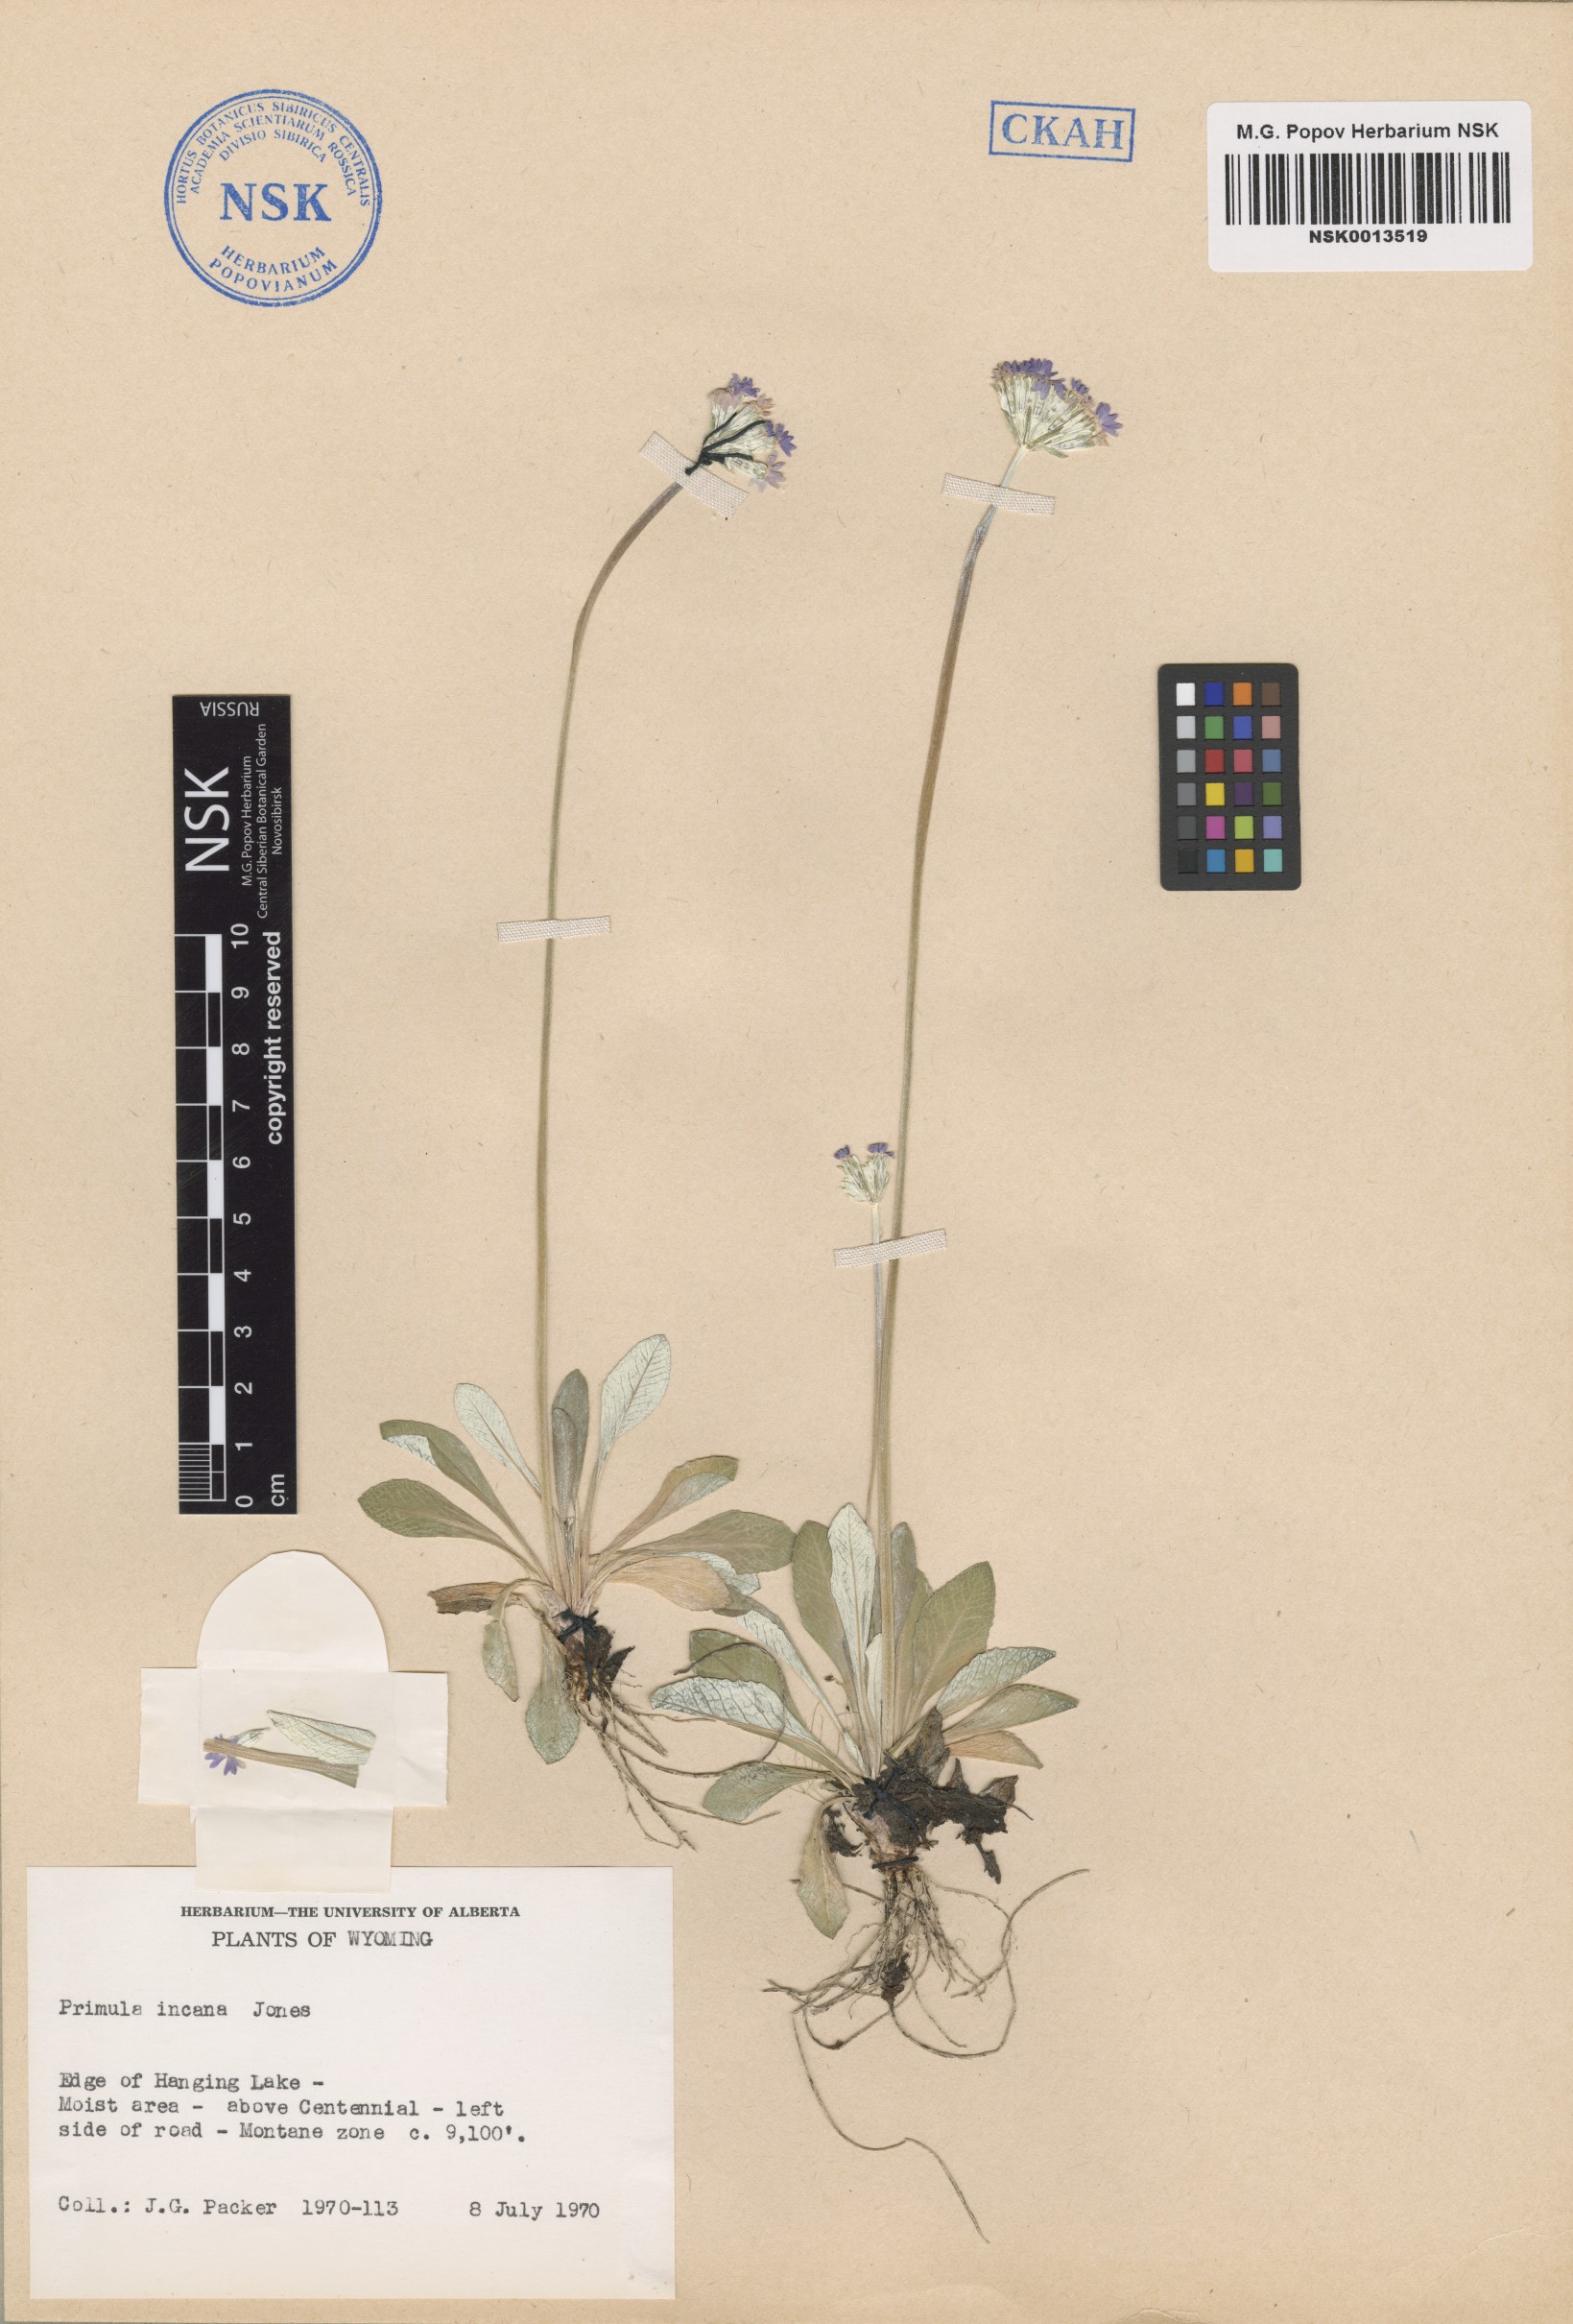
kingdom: Plantae
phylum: Tracheophyta
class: Magnoliopsida
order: Ericales
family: Primulaceae
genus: Primula
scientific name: Primula incana
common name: Hoary primrose
